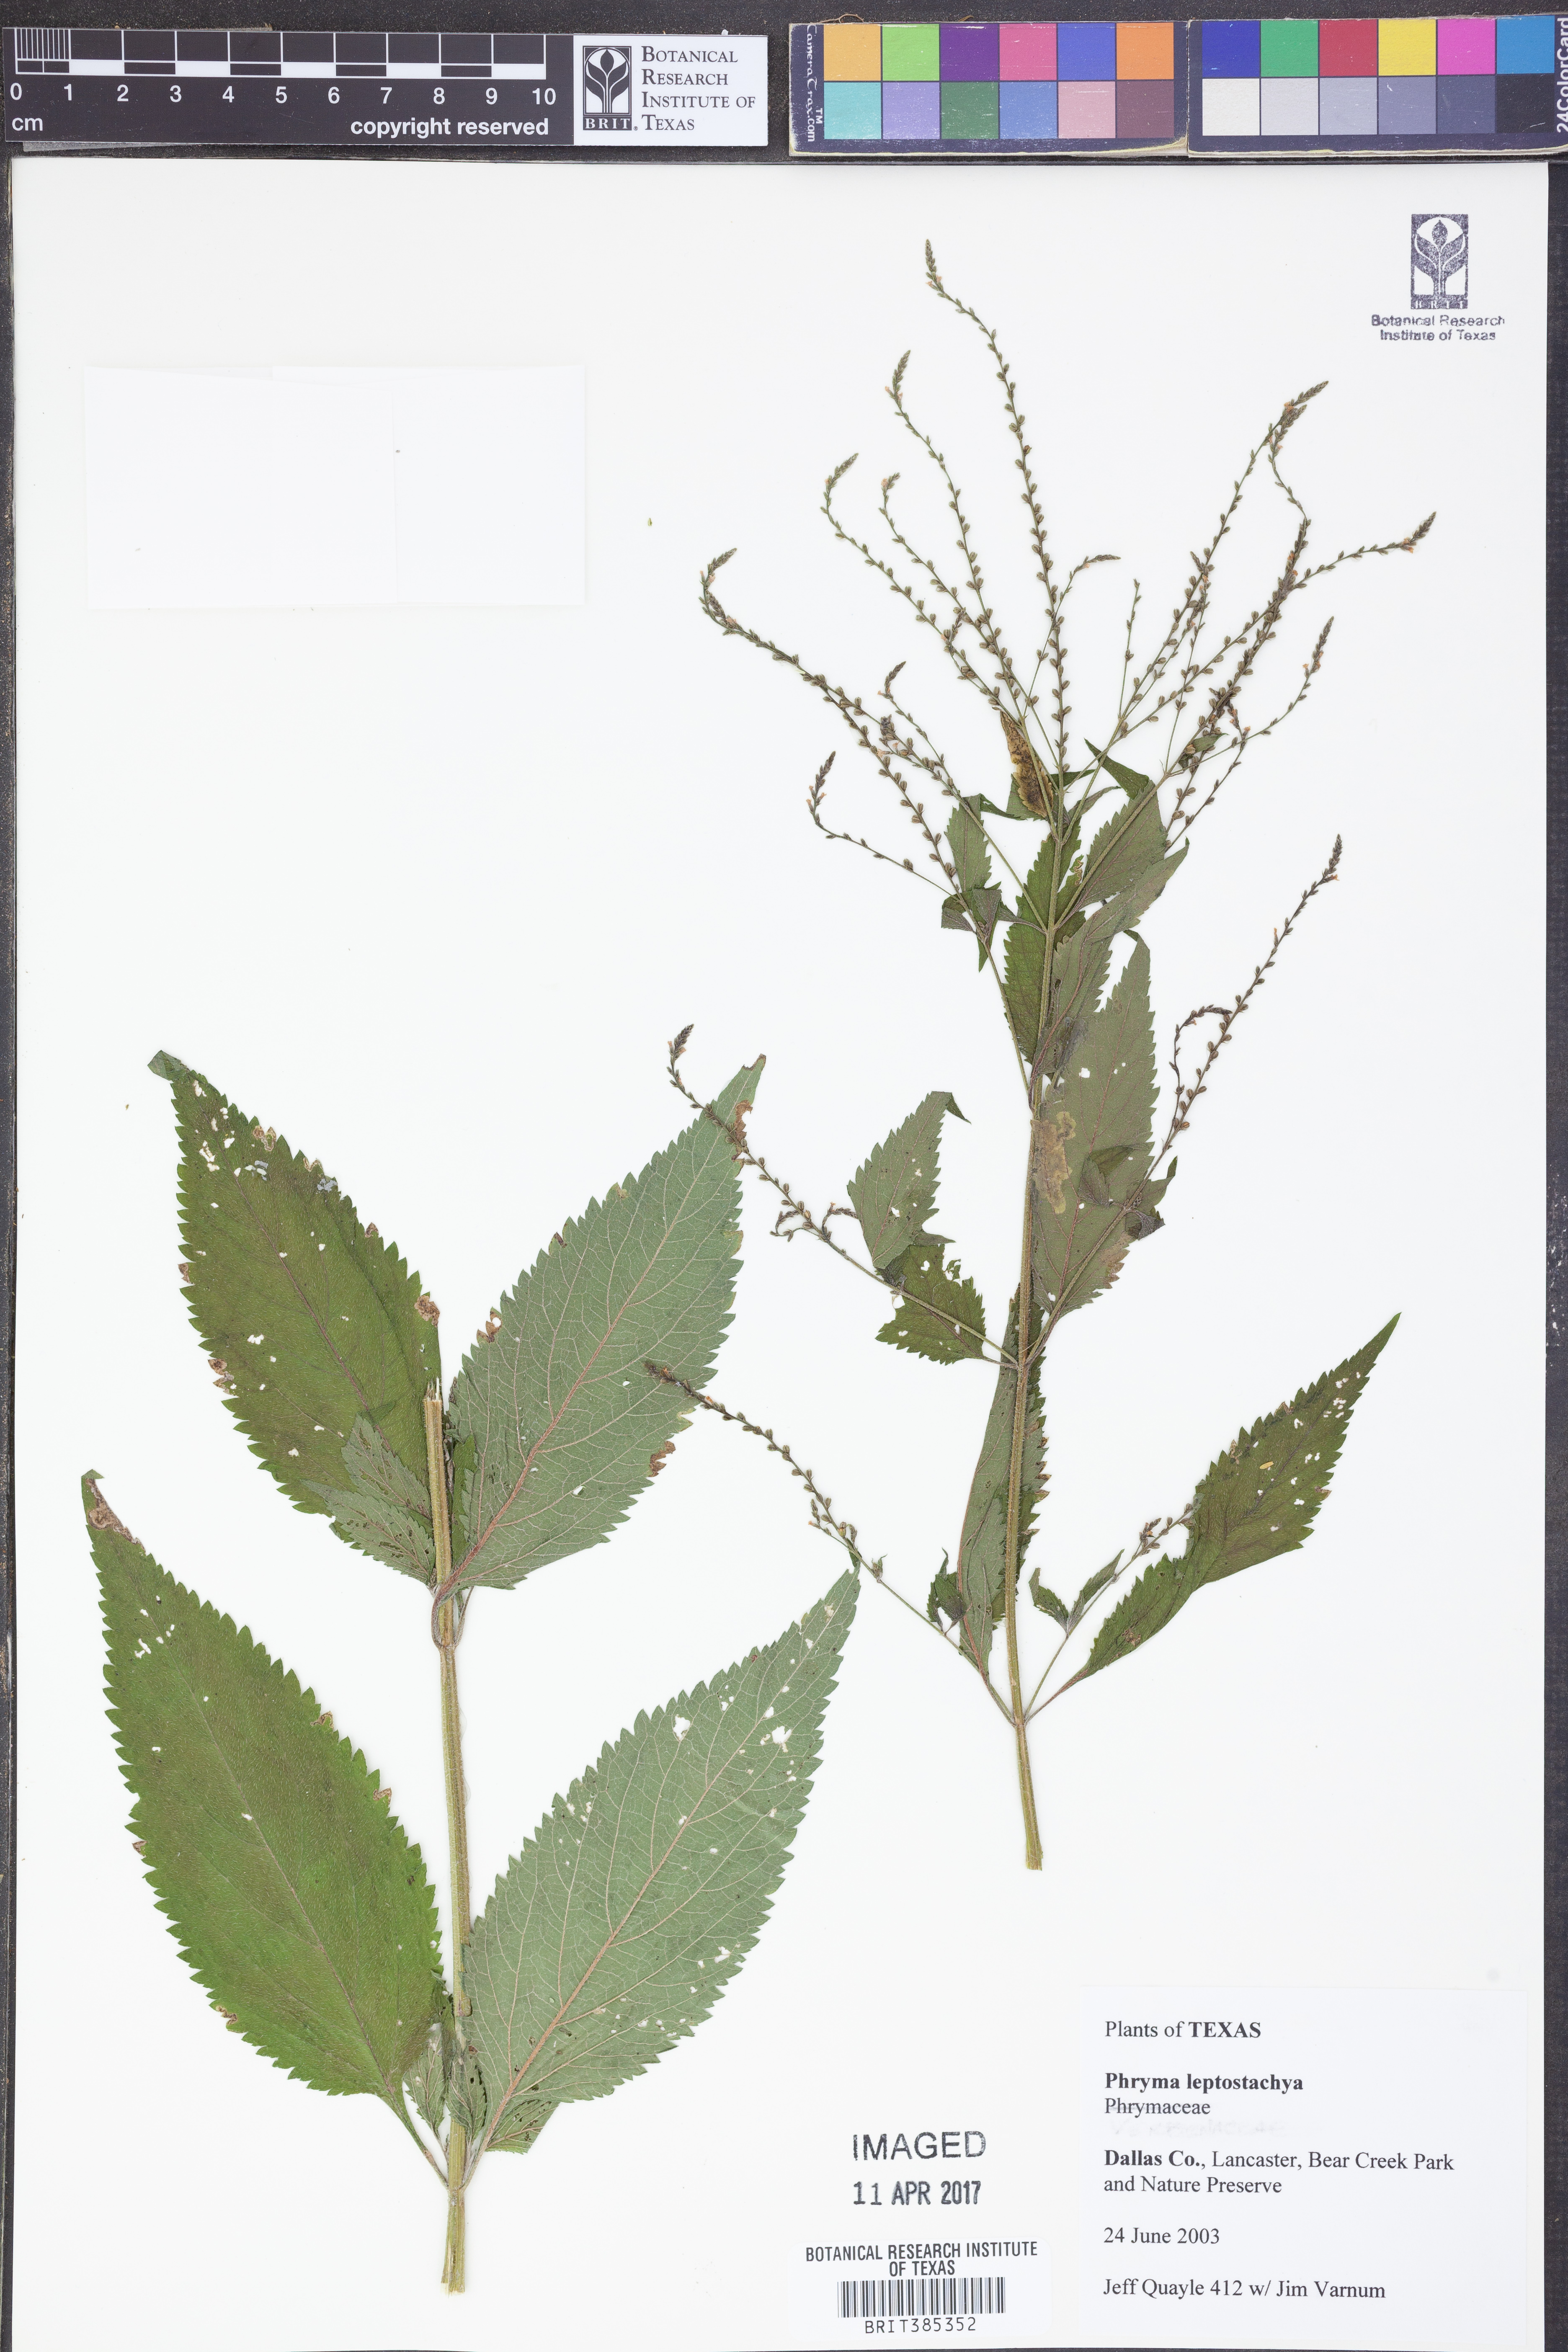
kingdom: Plantae
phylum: Tracheophyta
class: Magnoliopsida
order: Lamiales
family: Verbenaceae
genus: Verbena
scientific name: Verbena urticifolia
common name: Nettle-leaved vervain
